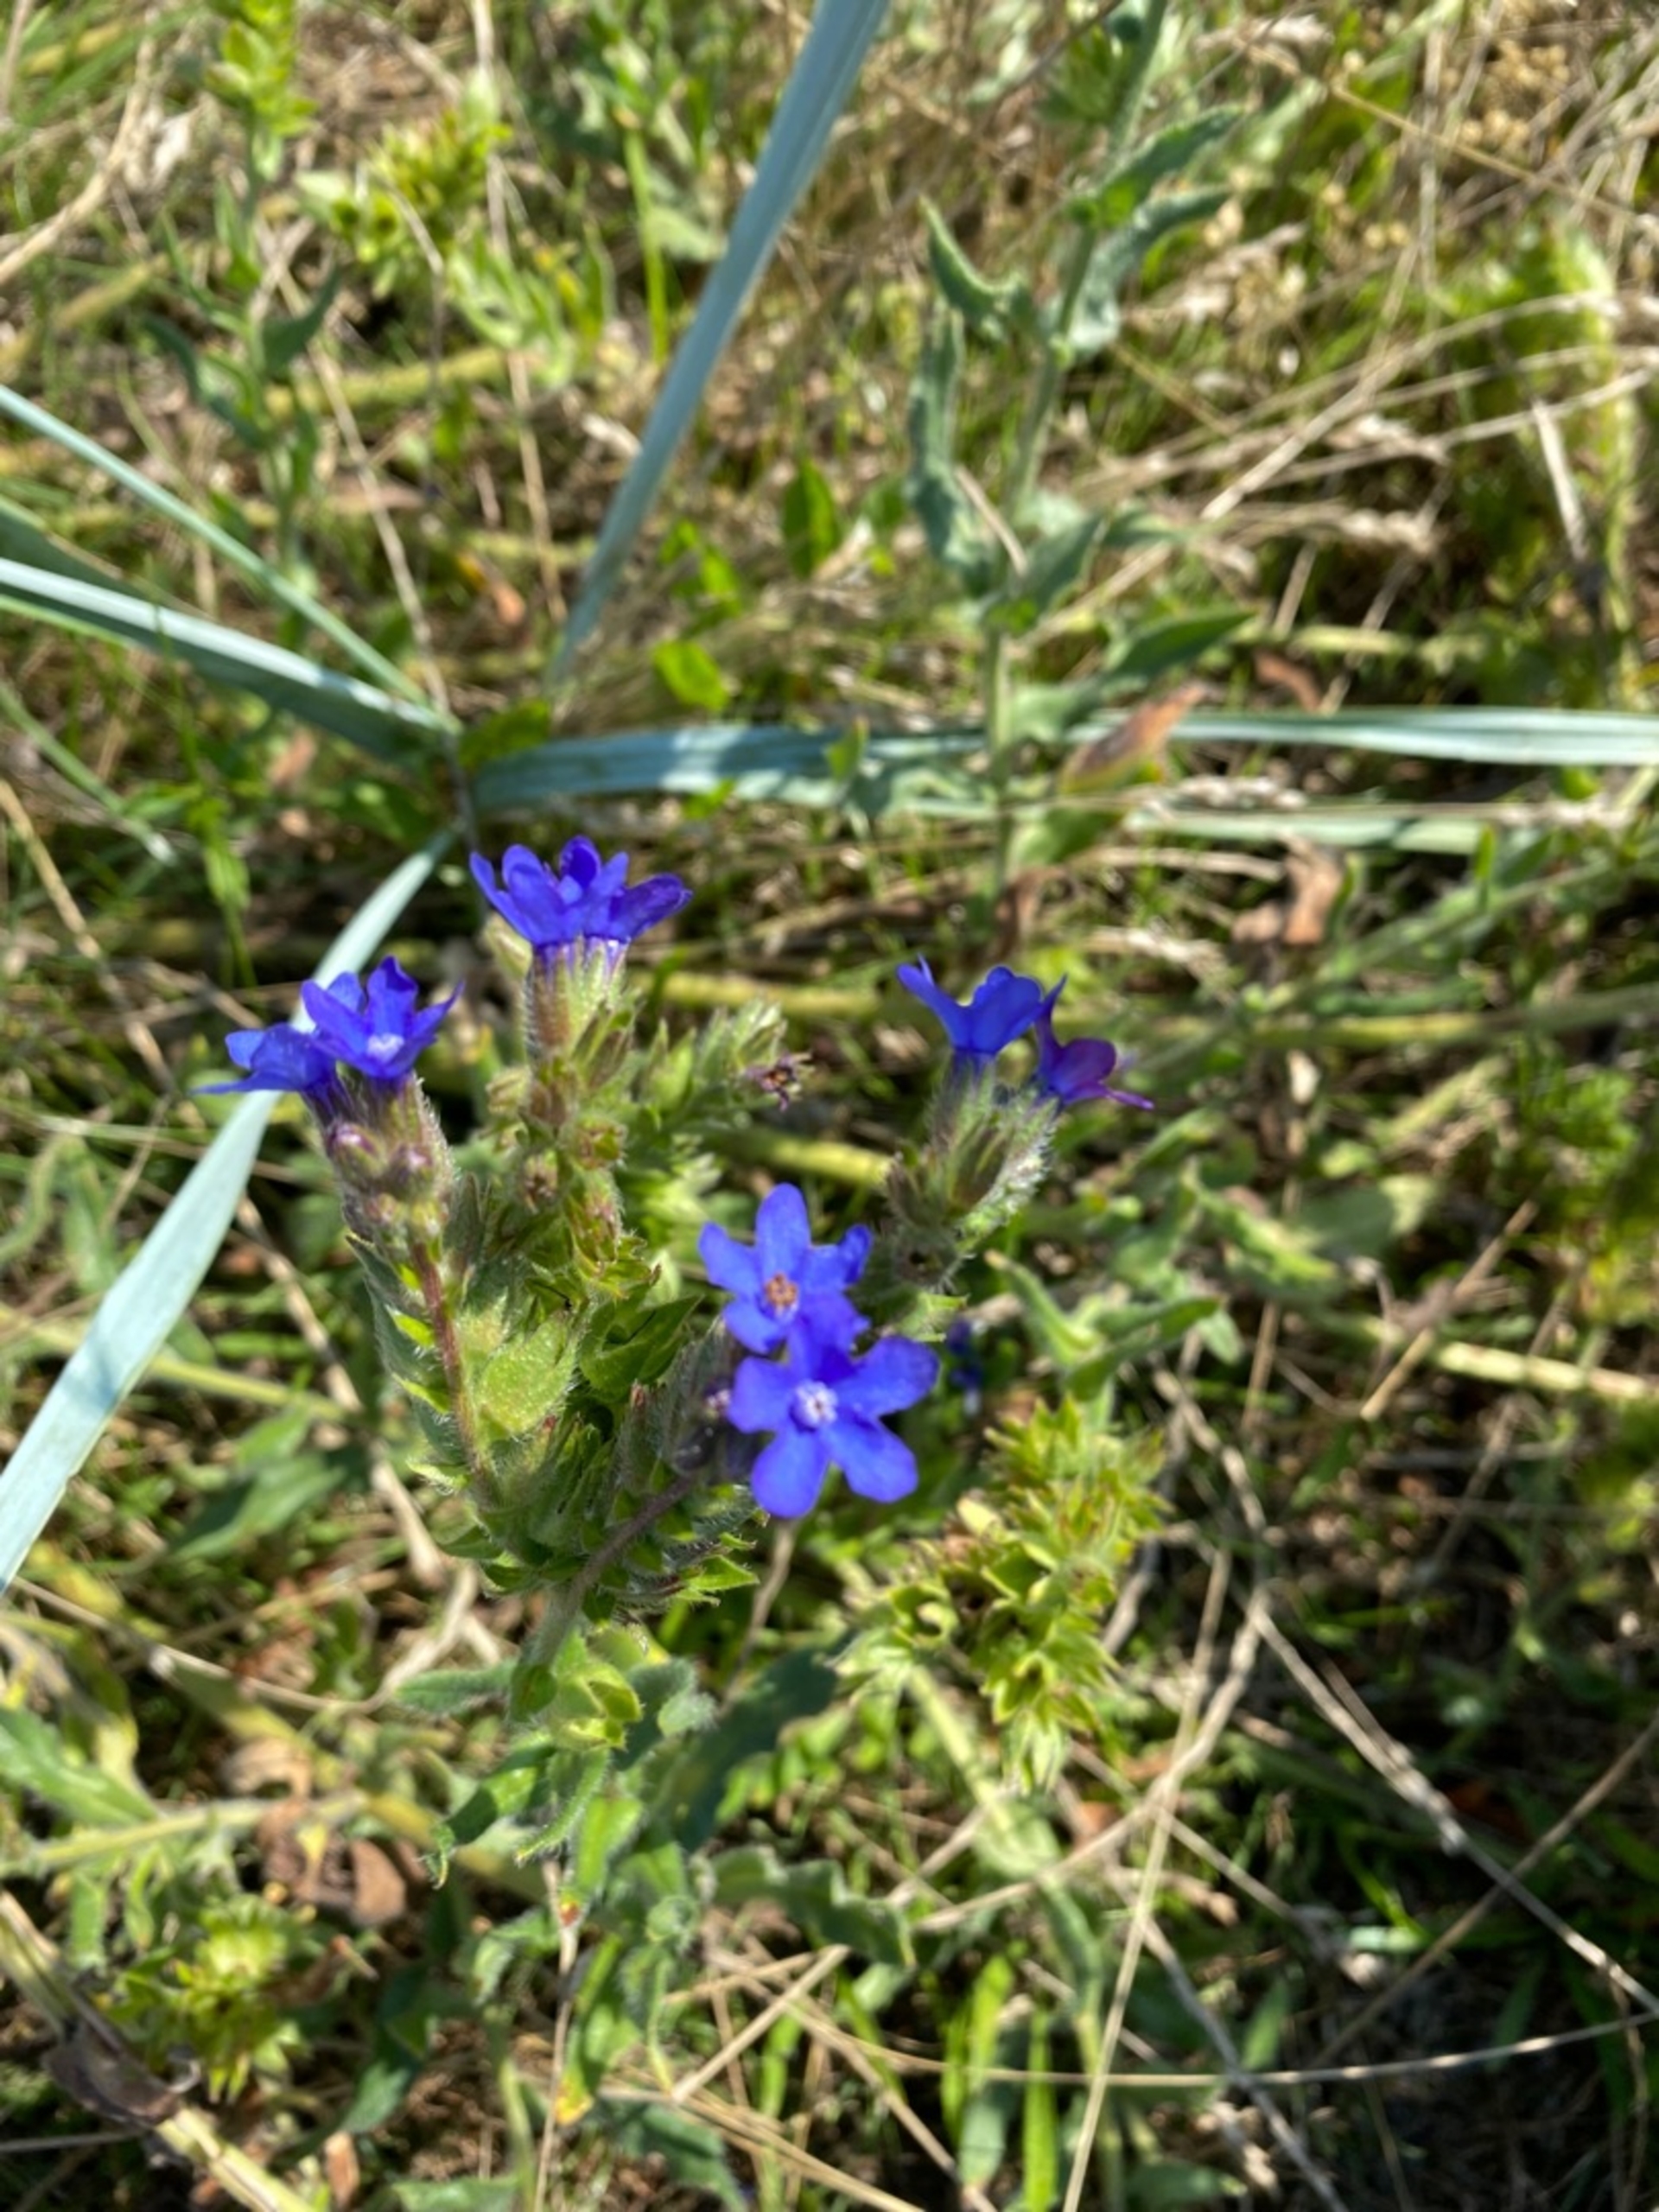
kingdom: Plantae
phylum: Tracheophyta
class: Magnoliopsida
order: Boraginales
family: Boraginaceae
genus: Anchusa
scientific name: Anchusa officinalis
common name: Læge-oksetunge
